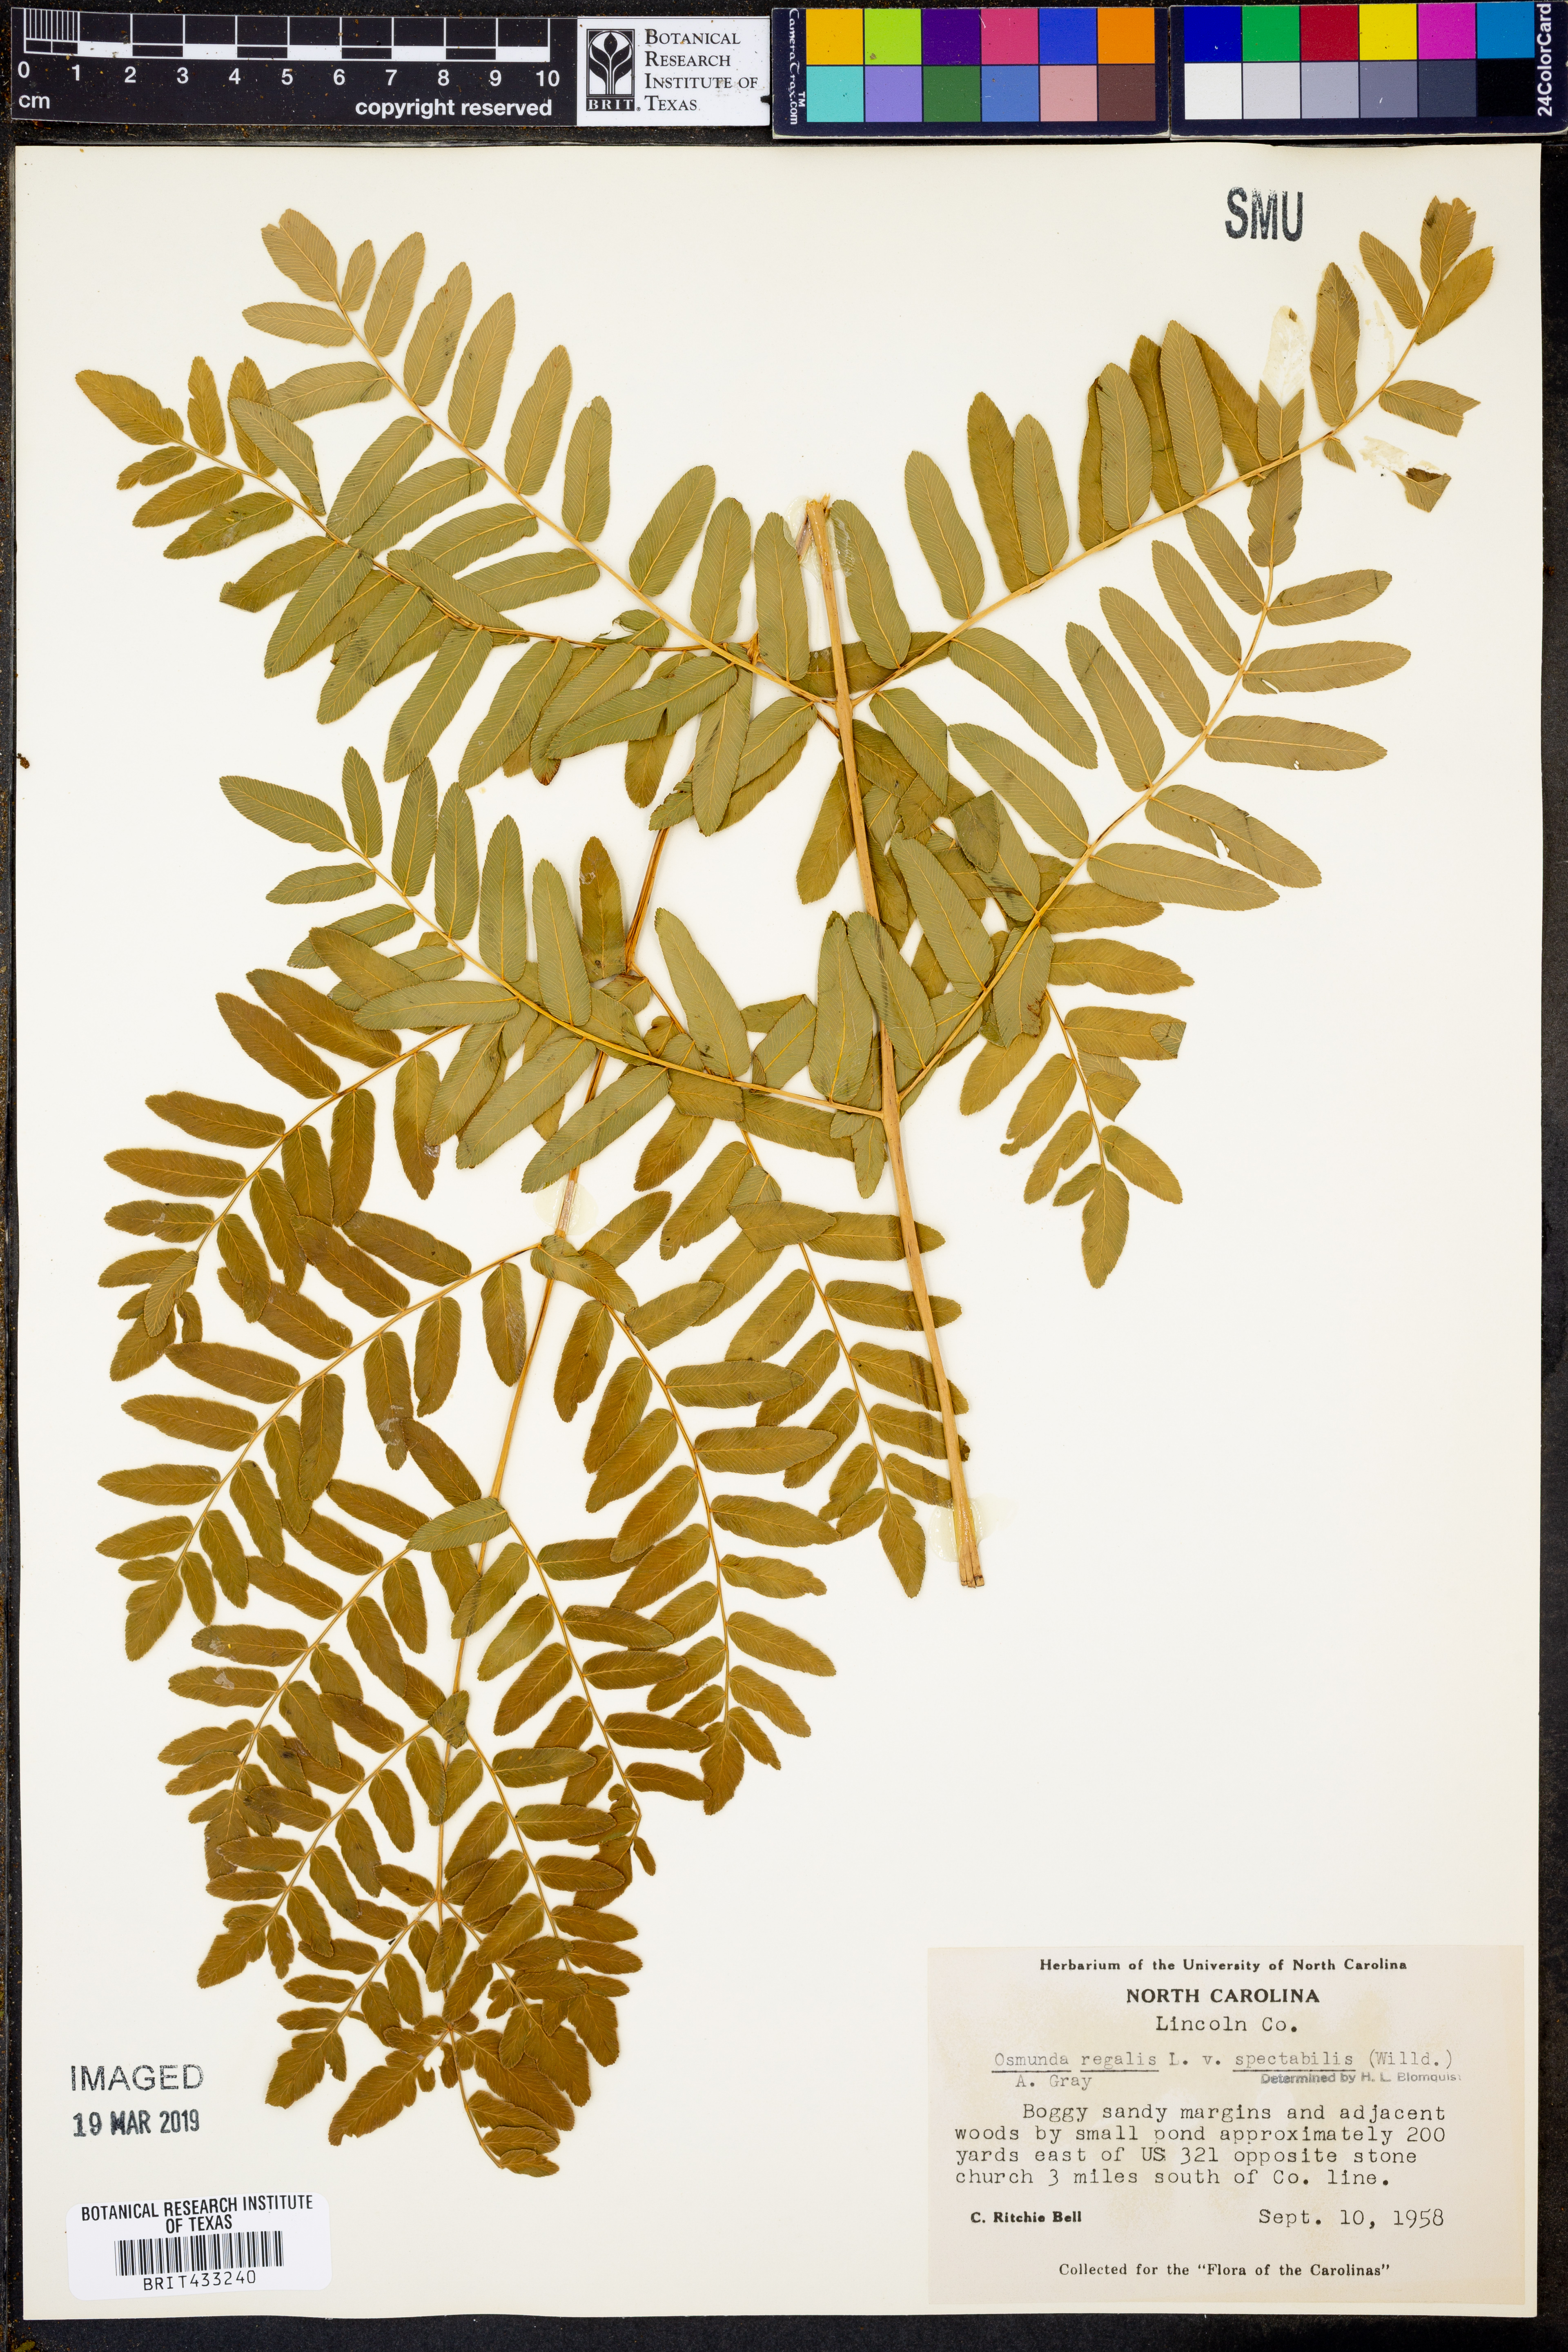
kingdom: Plantae
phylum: Tracheophyta
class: Polypodiopsida
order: Osmundales
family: Osmundaceae
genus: Osmunda
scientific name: Osmunda spectabilis
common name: American royal fern
